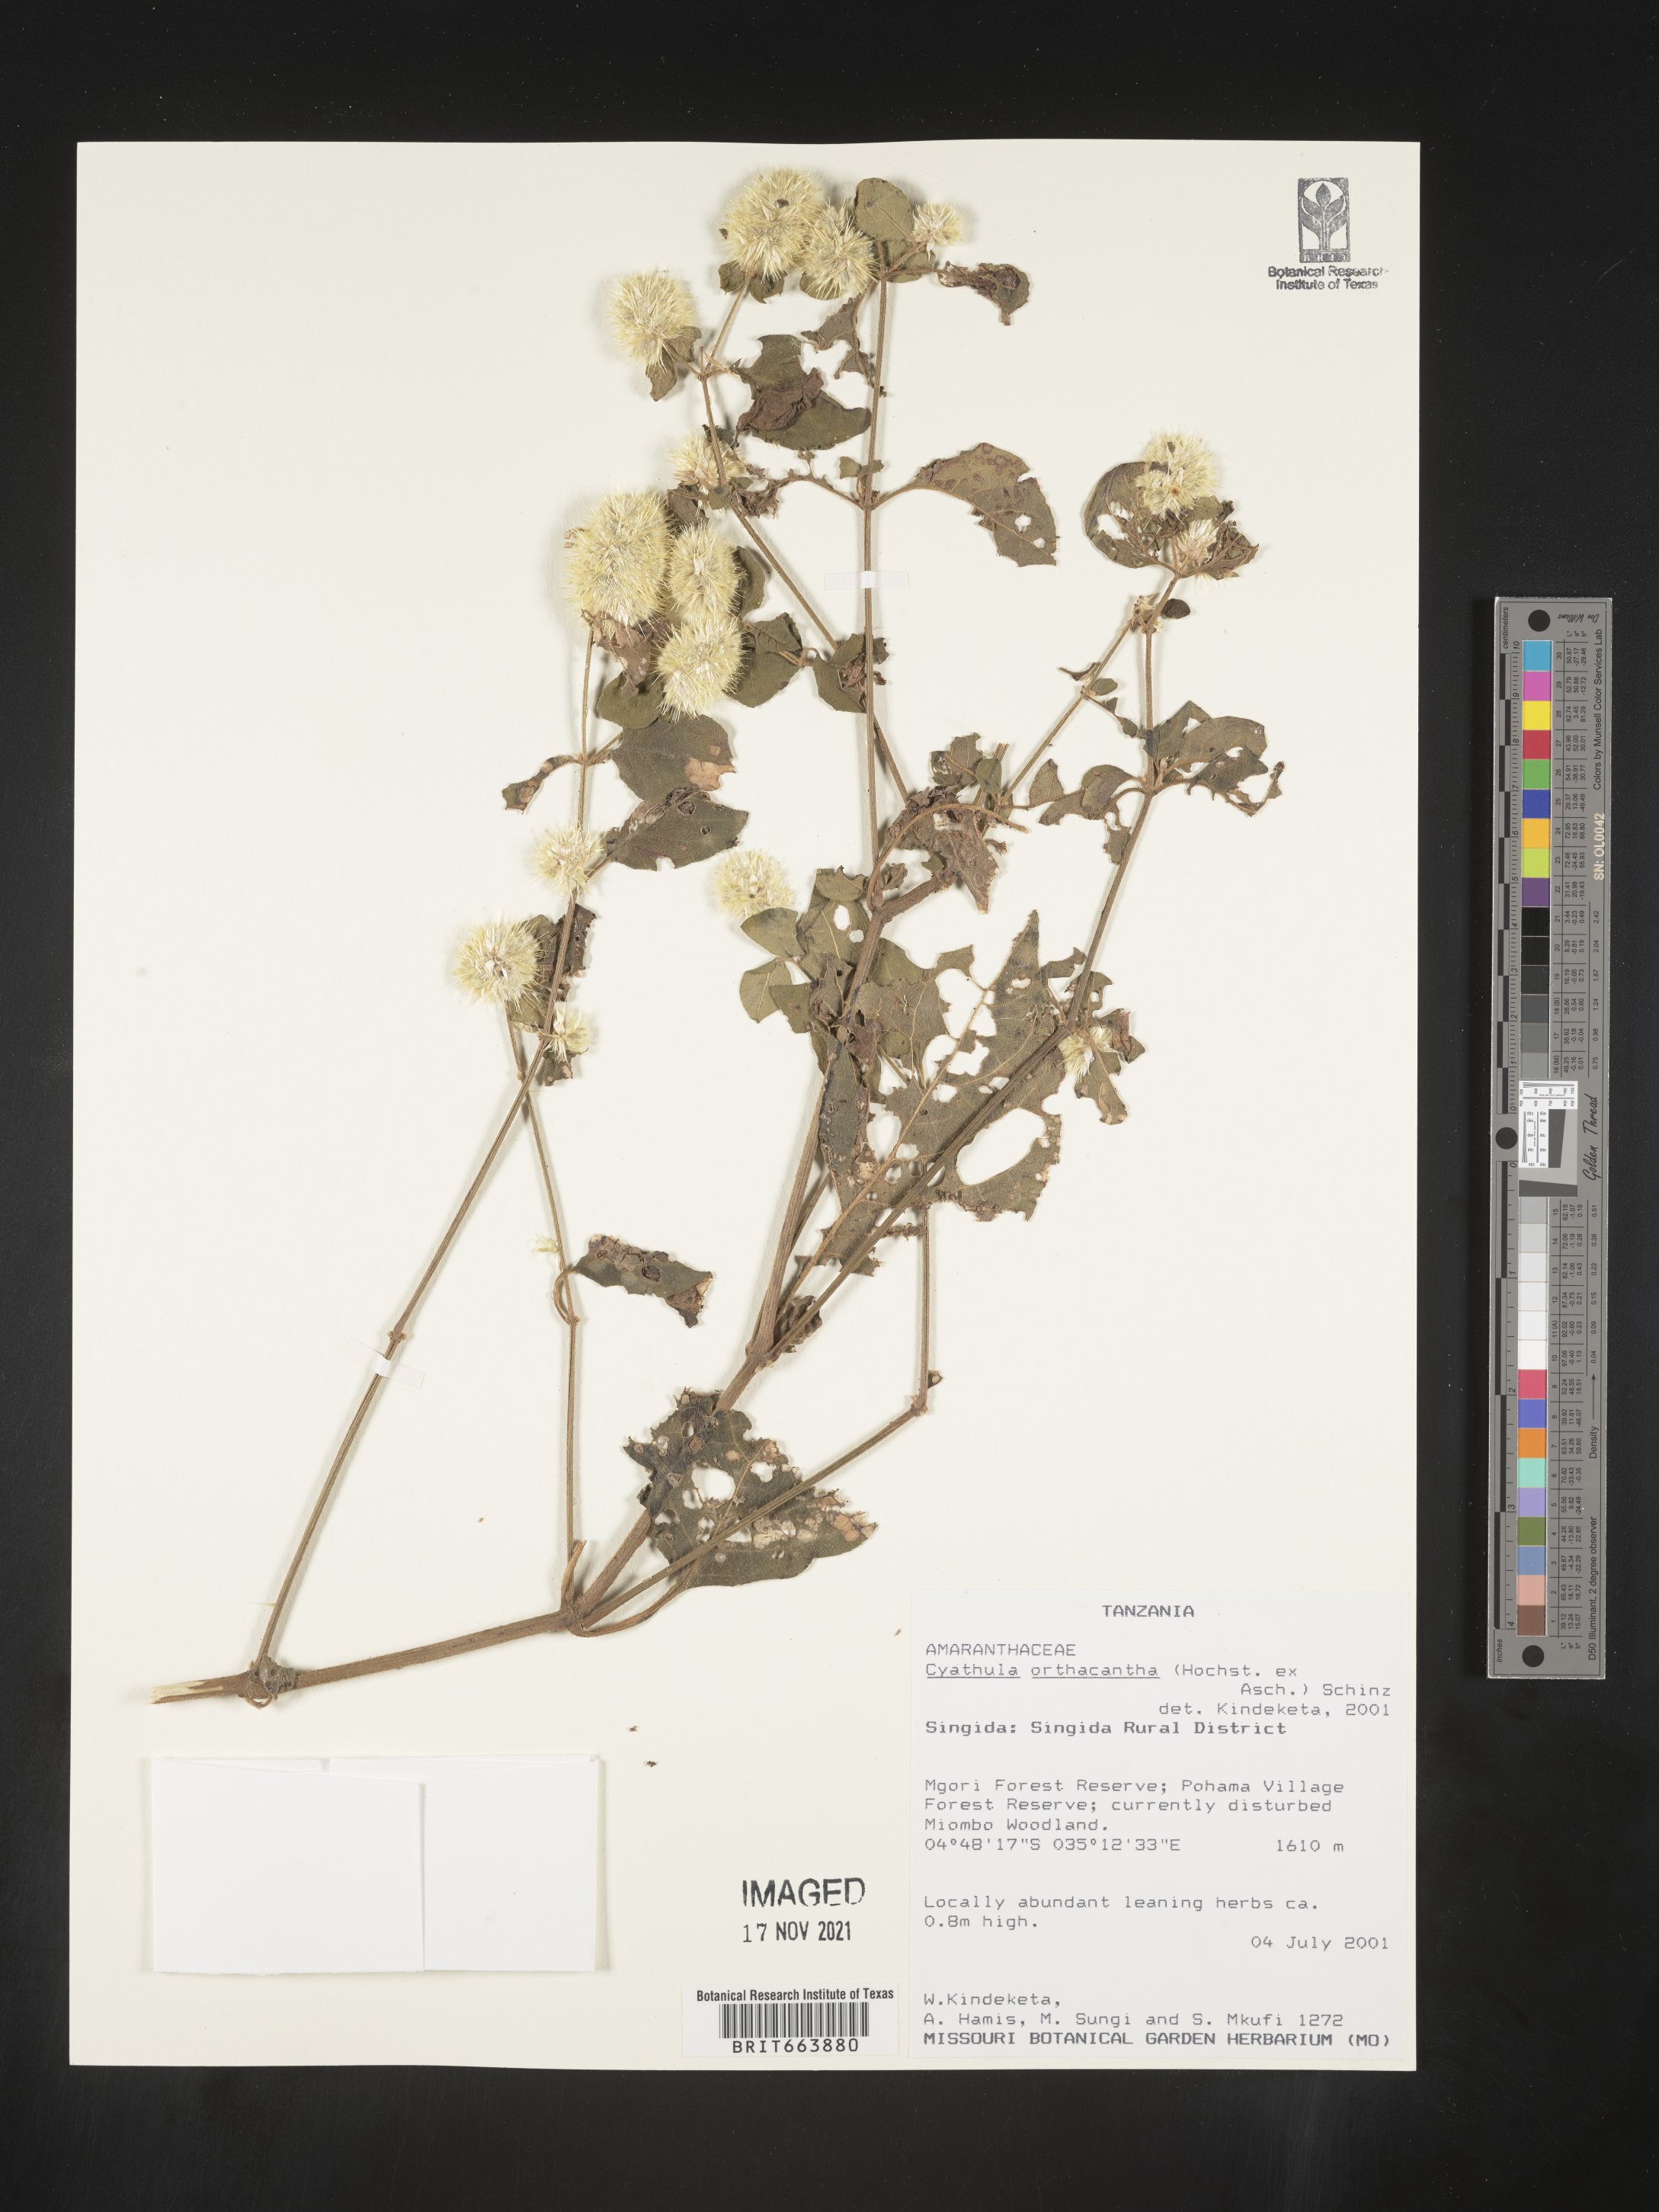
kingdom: Plantae
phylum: Tracheophyta
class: Magnoliopsida
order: Caryophyllales
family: Amaranthaceae
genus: Cyathula
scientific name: Cyathula
